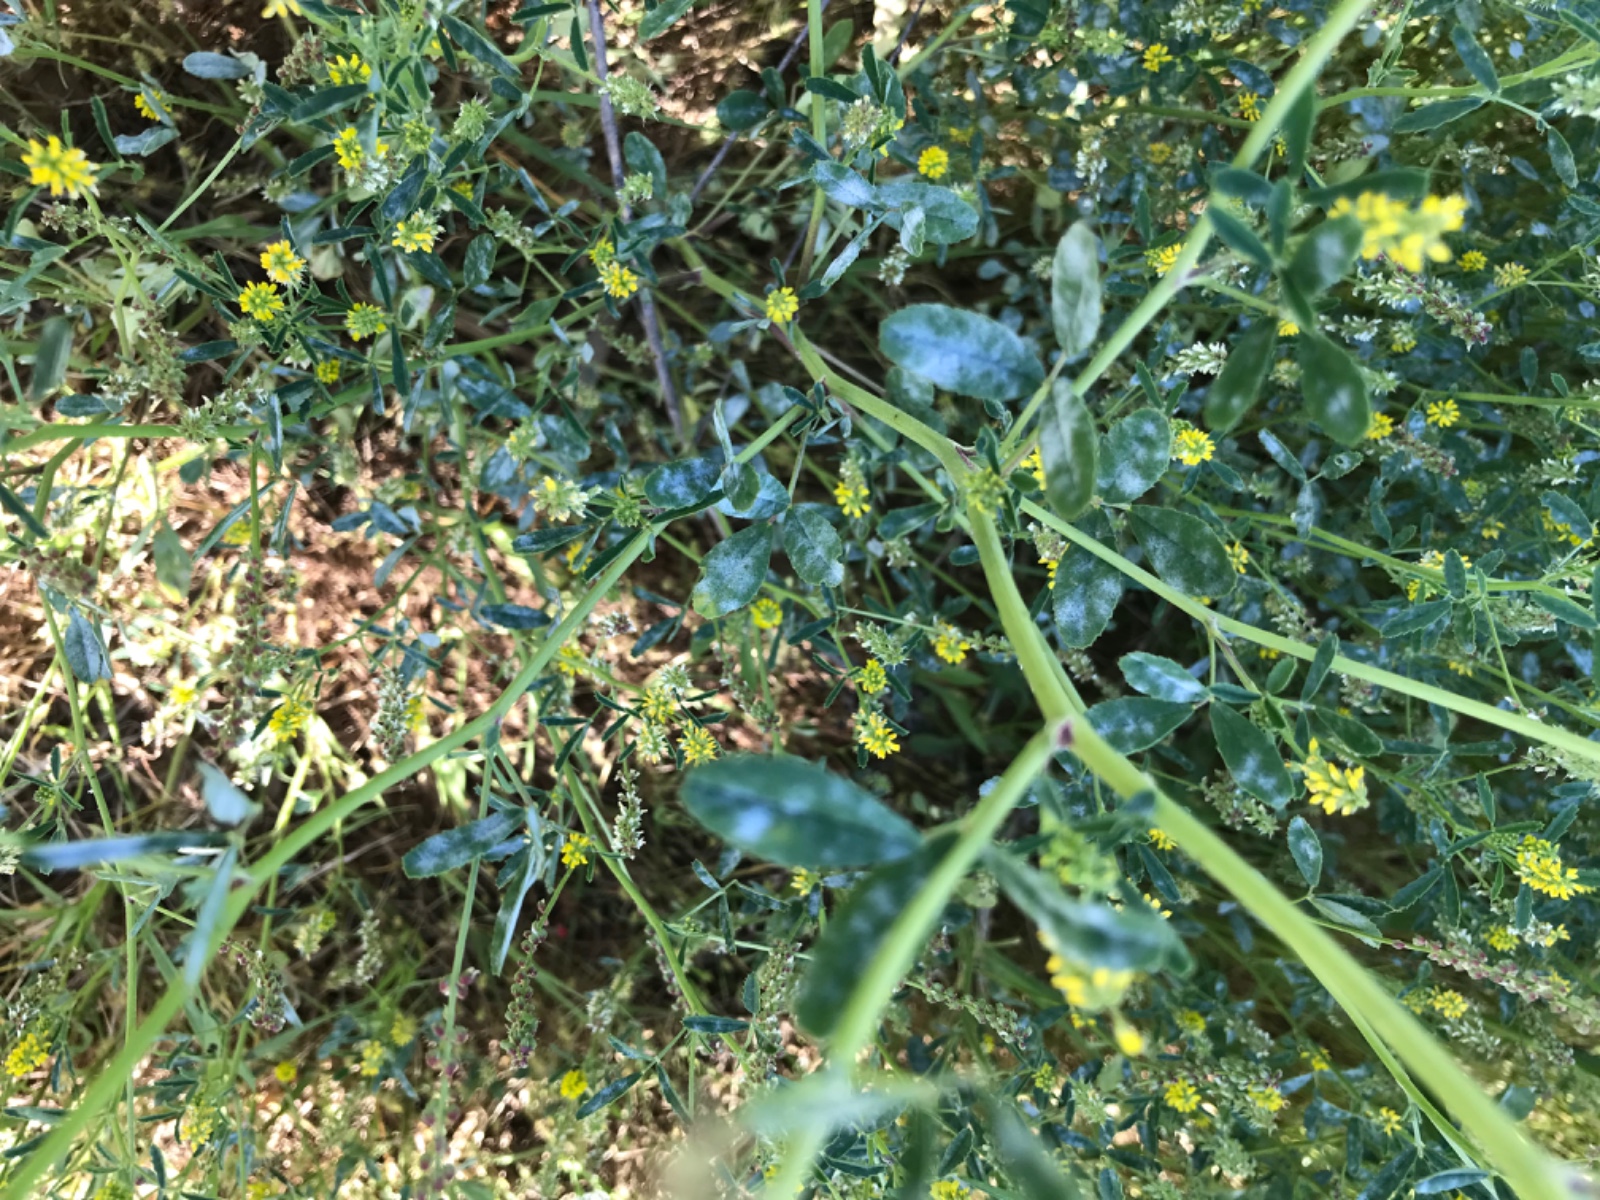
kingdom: Fungi
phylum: Ascomycota
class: Leotiomycetes
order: Helotiales
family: Erysiphaceae
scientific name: Erysiphaceae
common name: meldugfamilien
